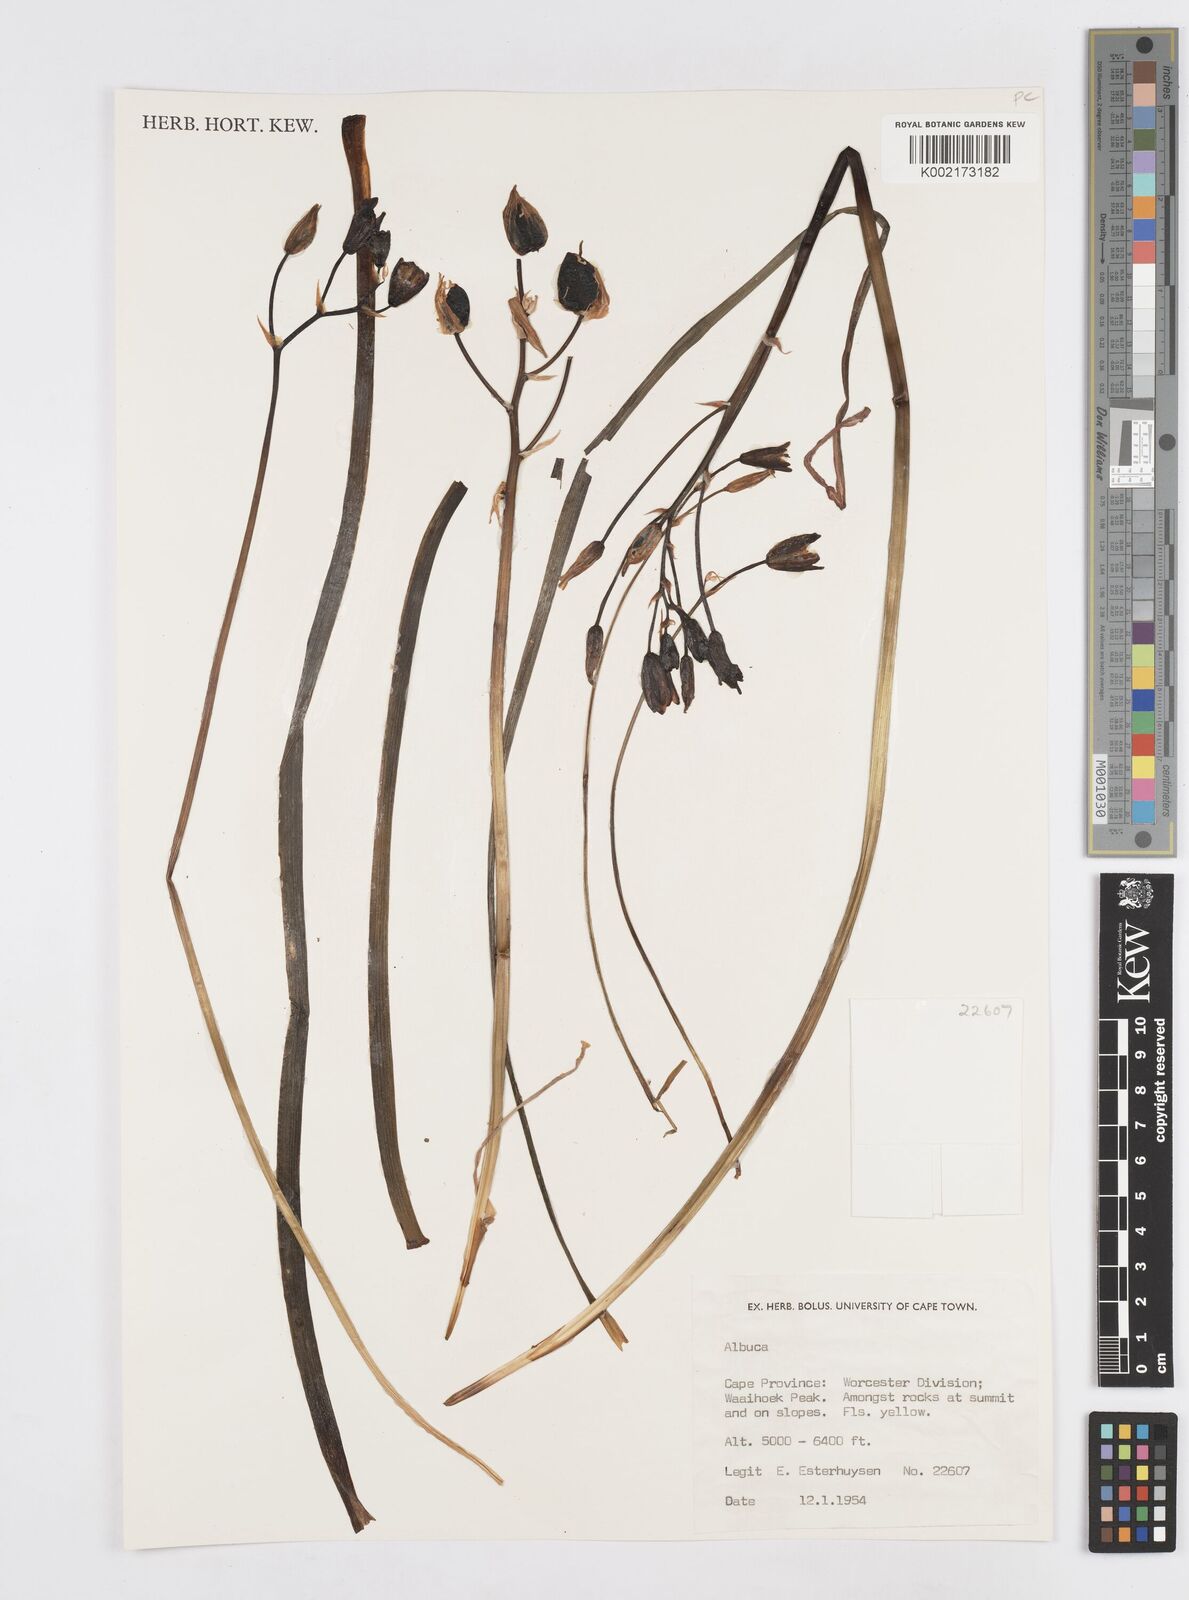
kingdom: Plantae
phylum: Tracheophyta
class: Liliopsida
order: Asparagales
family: Asparagaceae
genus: Albuca
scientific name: Albuca
